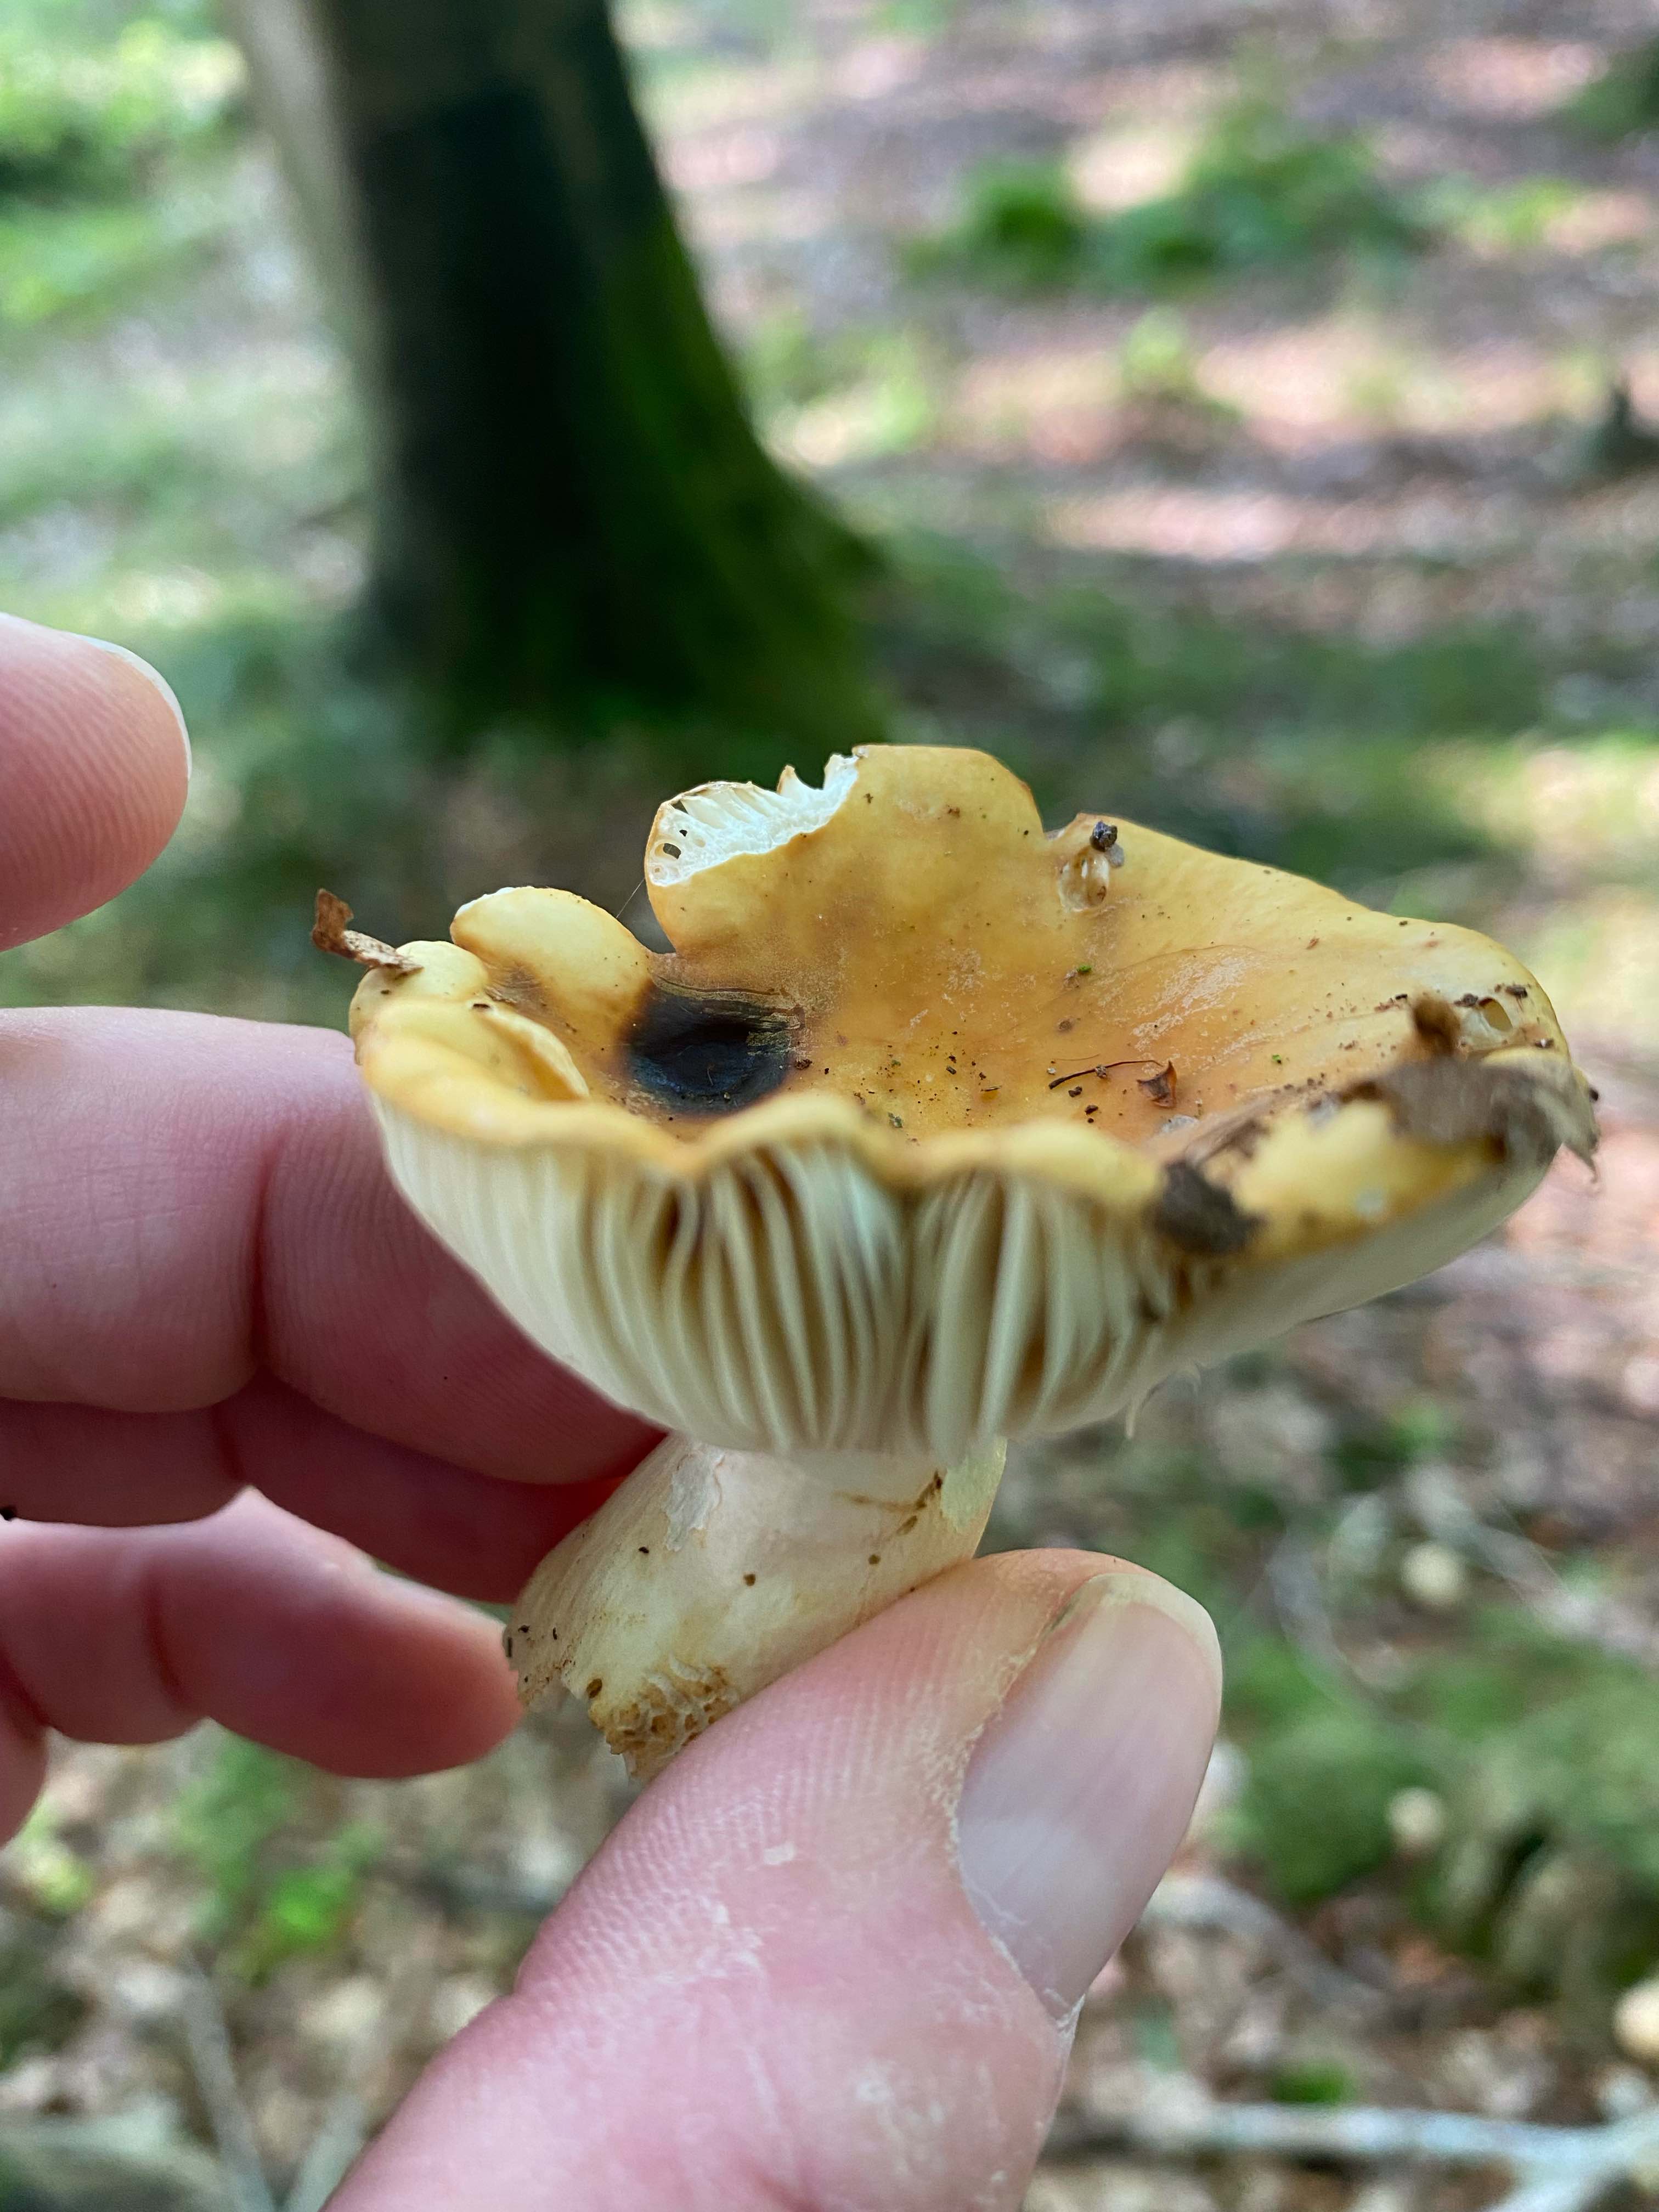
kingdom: Fungi
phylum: Basidiomycota
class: Agaricomycetes
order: Russulales
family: Russulaceae
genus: Russula
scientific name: Russula ochroleuca
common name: okkergul skørhat
